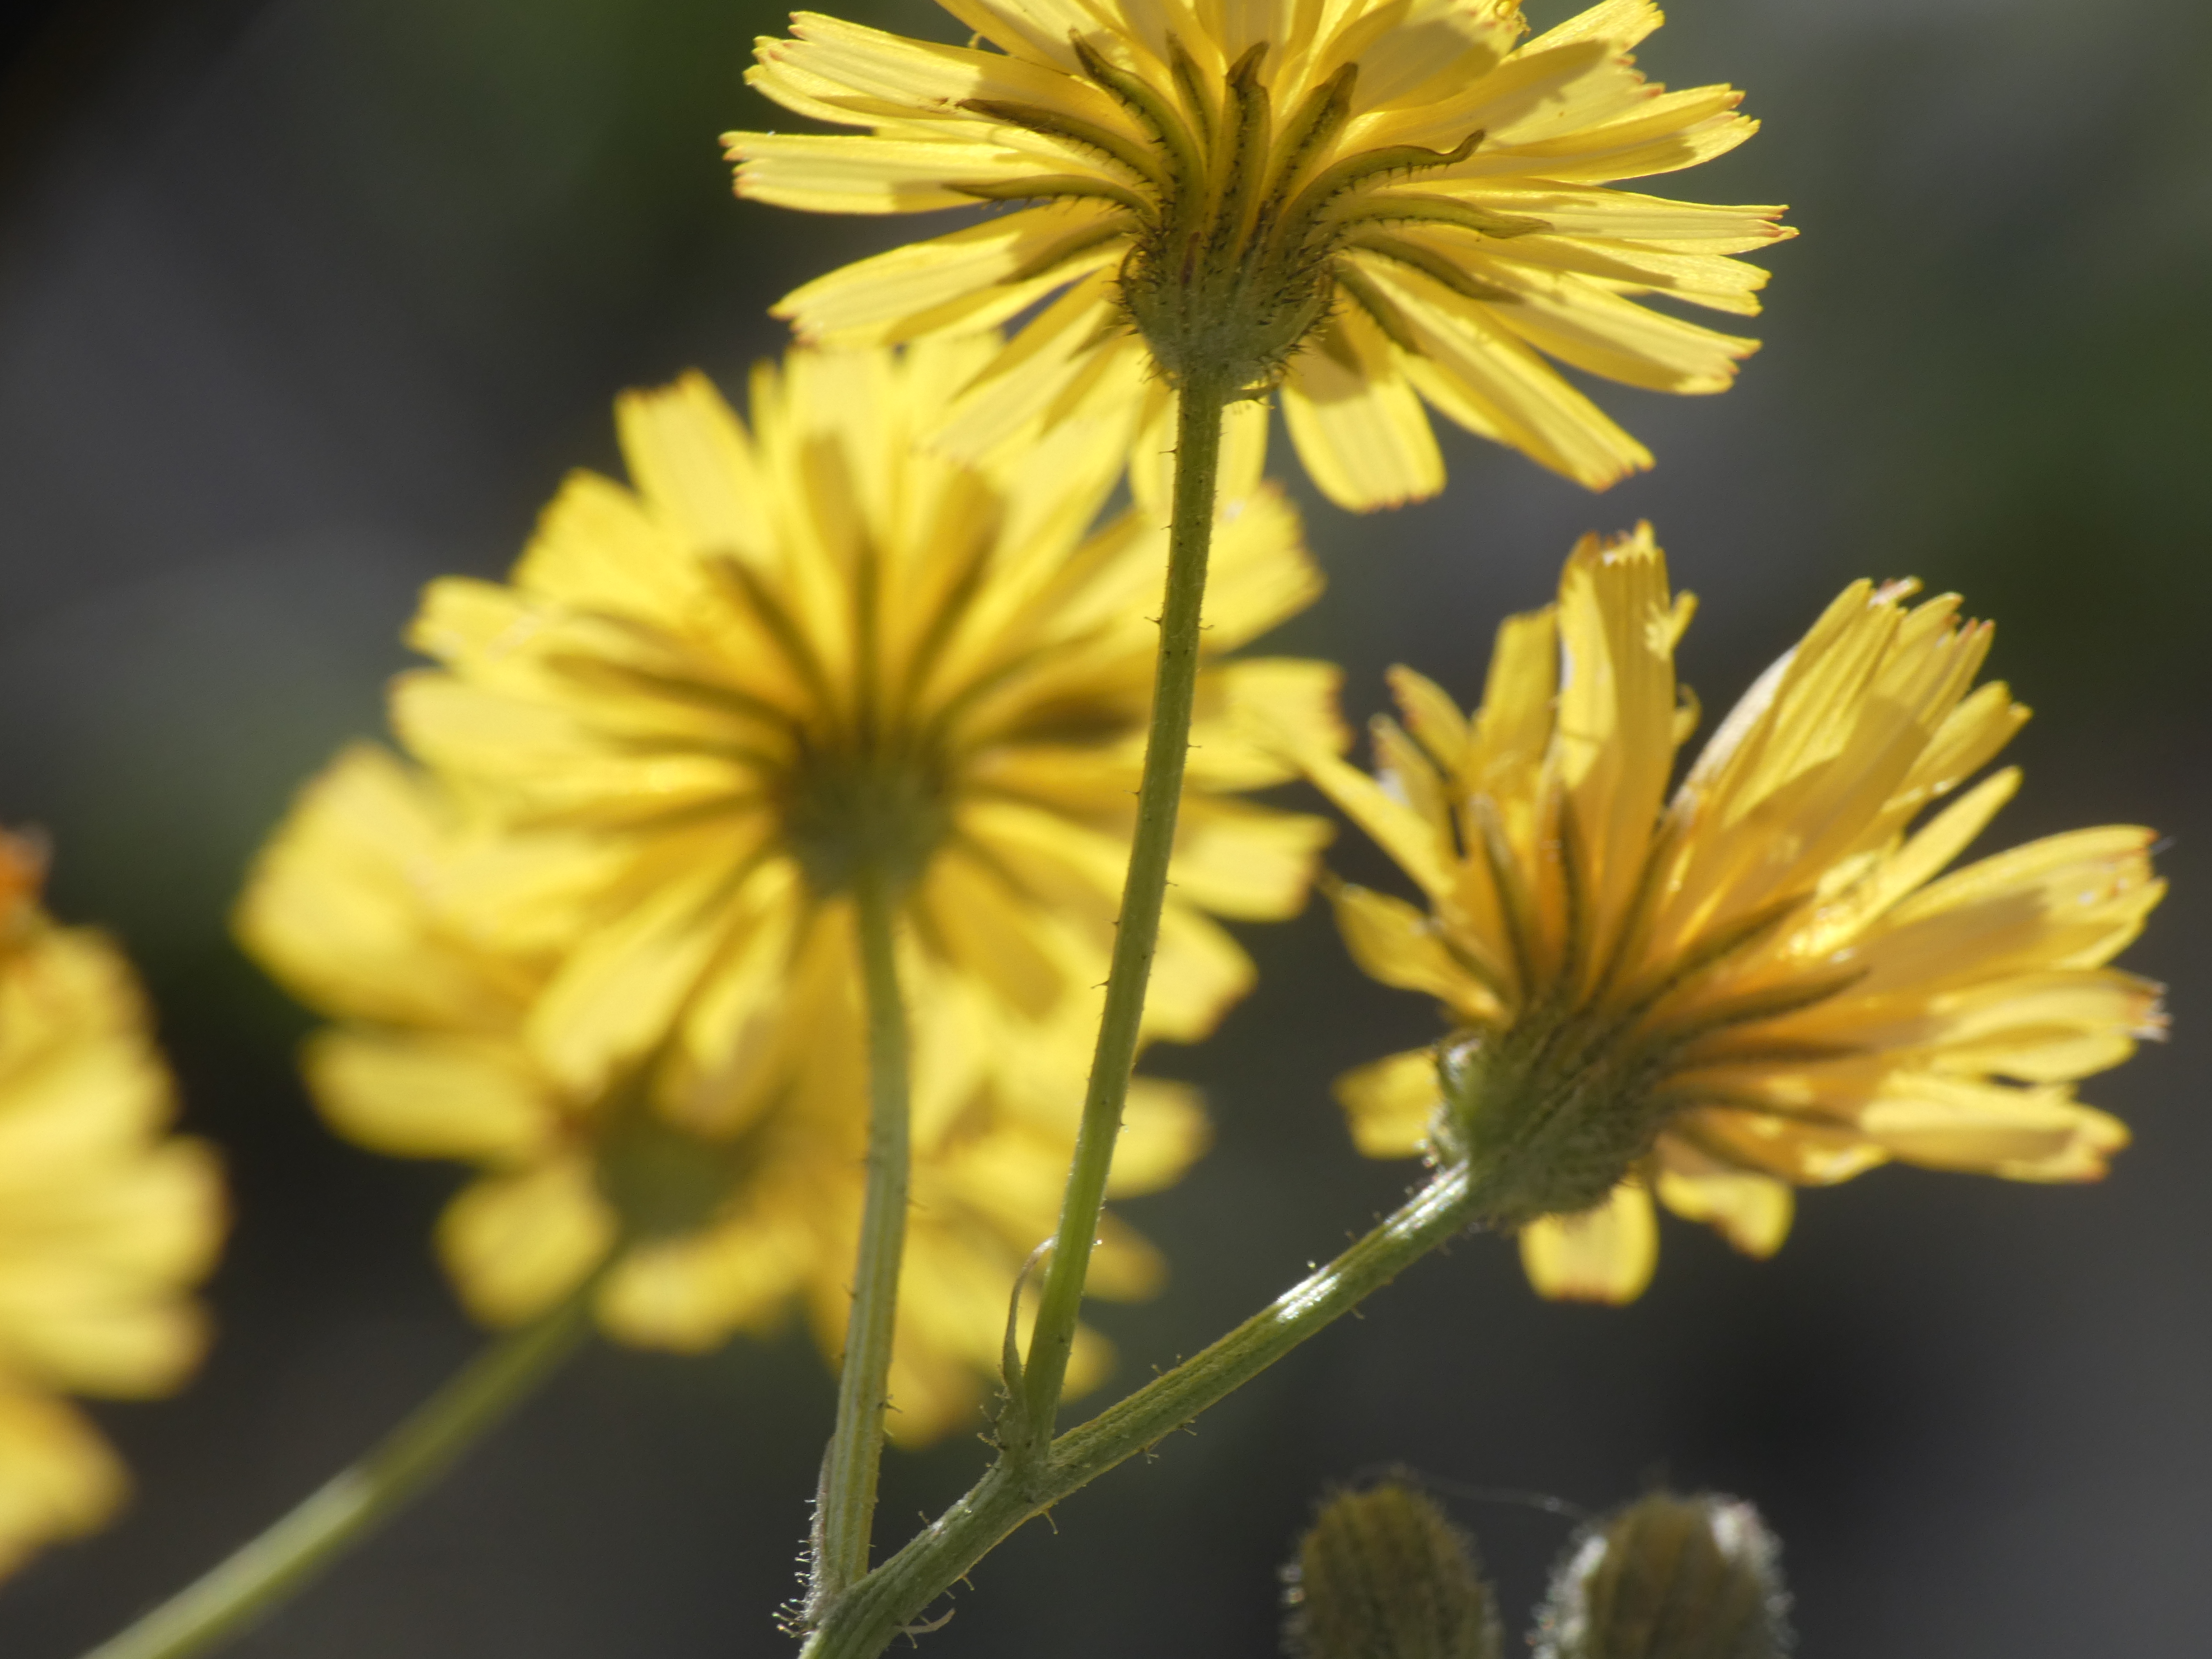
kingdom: Plantae
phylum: Tracheophyta
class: Magnoliopsida
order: Asterales
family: Asteraceae
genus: Crepis
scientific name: Crepis capillaris
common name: Grøn høgeskæg
